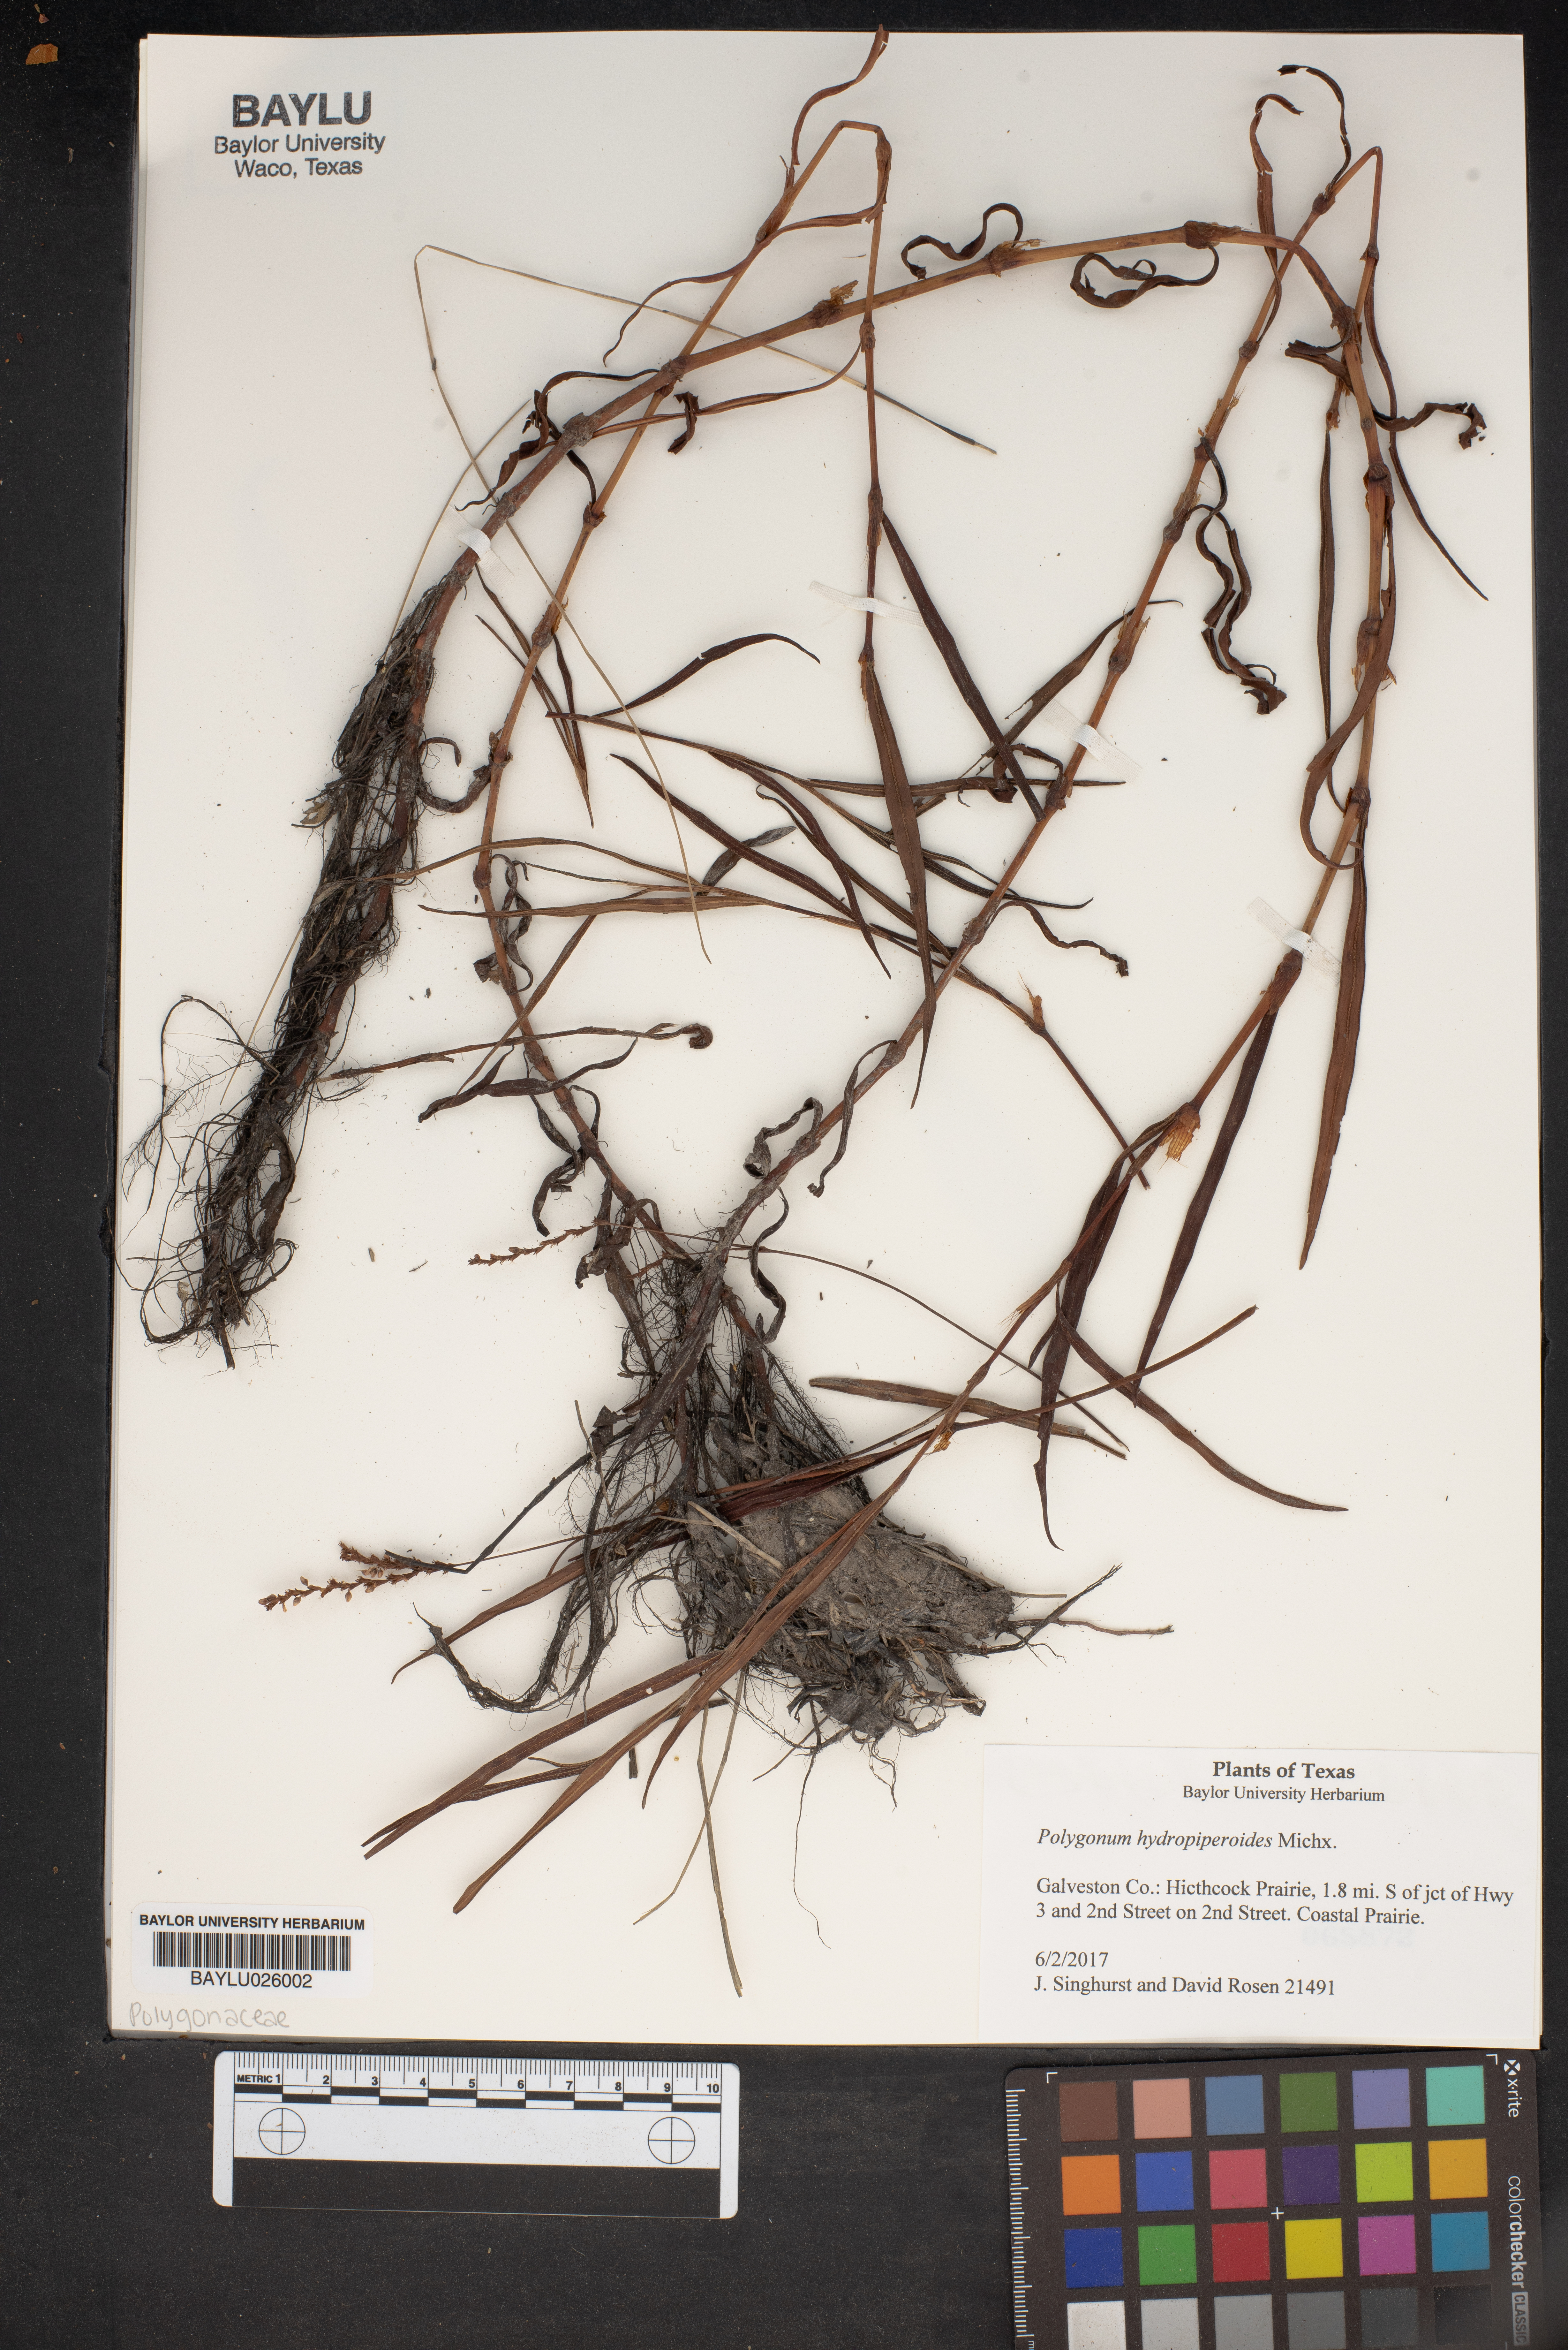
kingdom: Plantae
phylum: Tracheophyta
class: Magnoliopsida
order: Caryophyllales
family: Polygonaceae
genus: Persicaria
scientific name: Persicaria hydropiperoides
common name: Swamp smartweed
